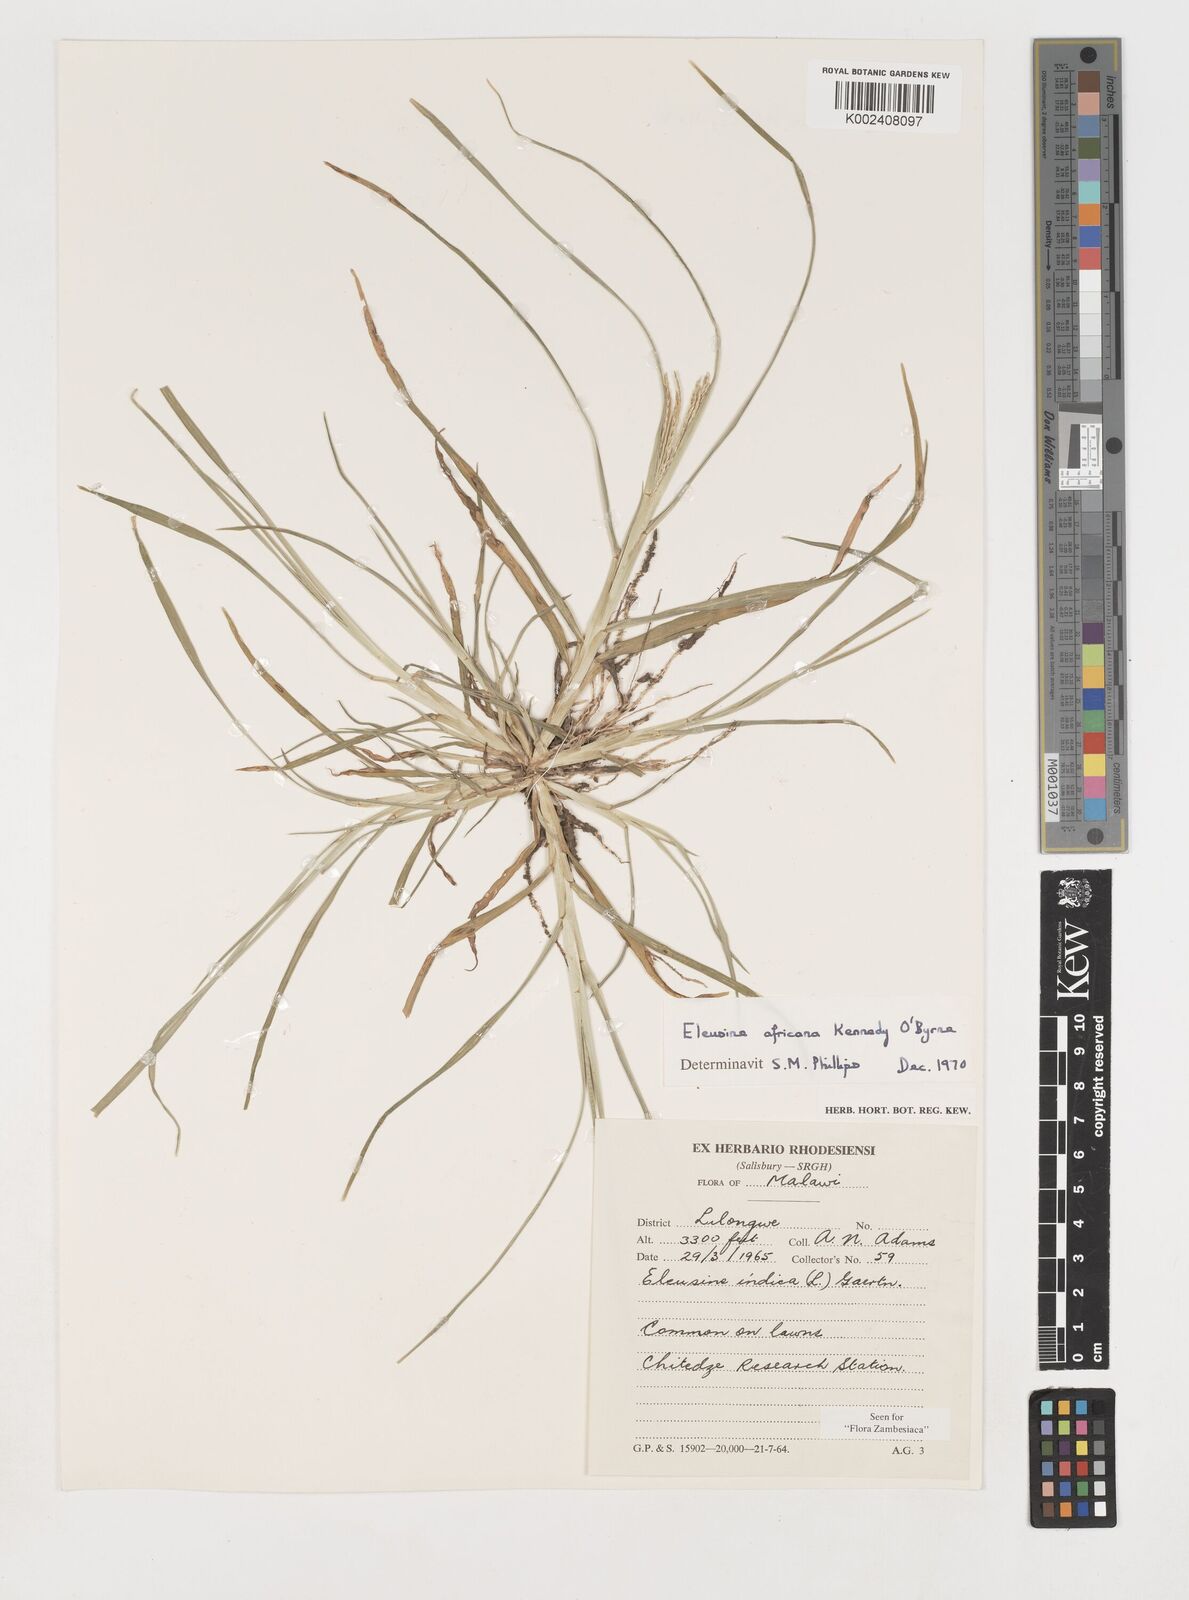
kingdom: Plantae
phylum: Tracheophyta
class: Liliopsida
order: Poales
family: Poaceae
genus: Eleusine
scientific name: Eleusine africana
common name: Wild african finger millet
